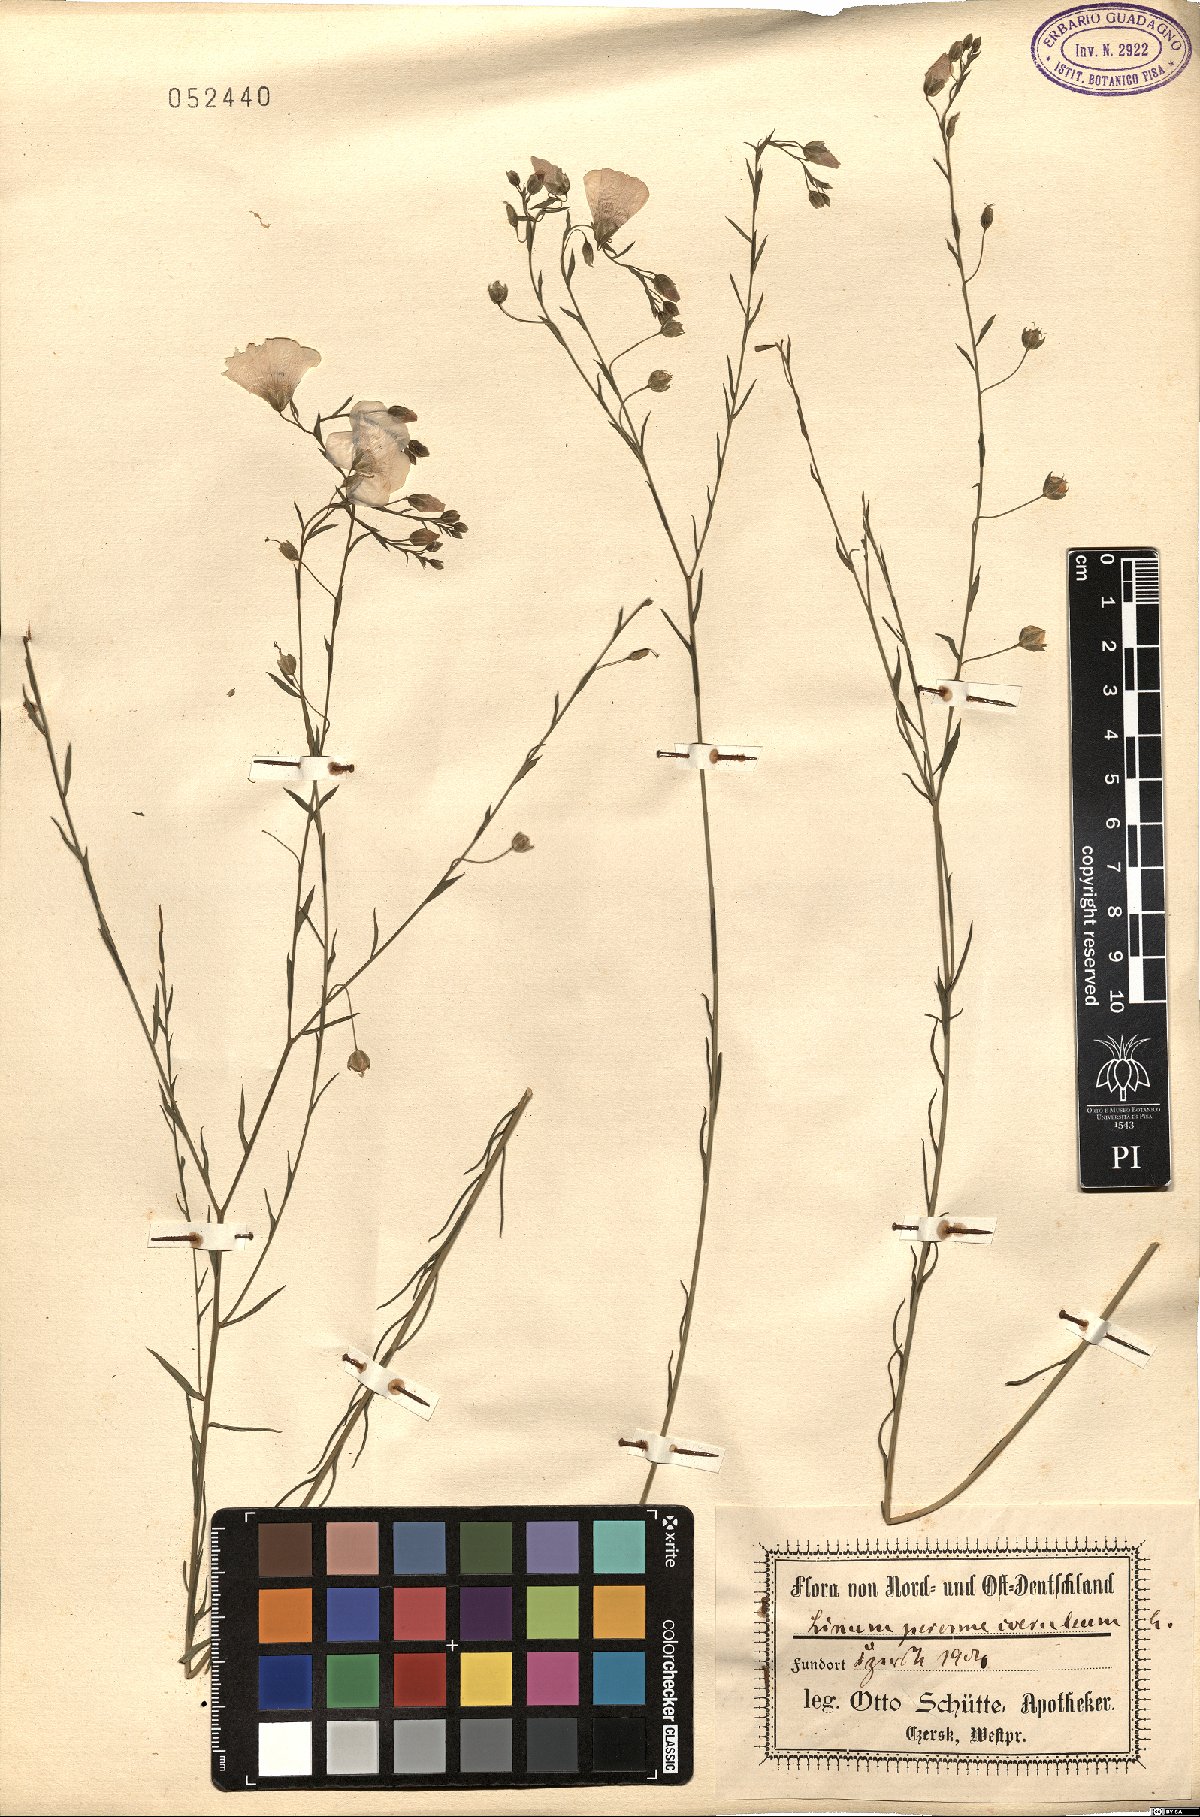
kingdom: Plantae
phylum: Tracheophyta
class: Magnoliopsida
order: Malpighiales
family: Linaceae
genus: Linum
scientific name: Linum perenne
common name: Blue flax
